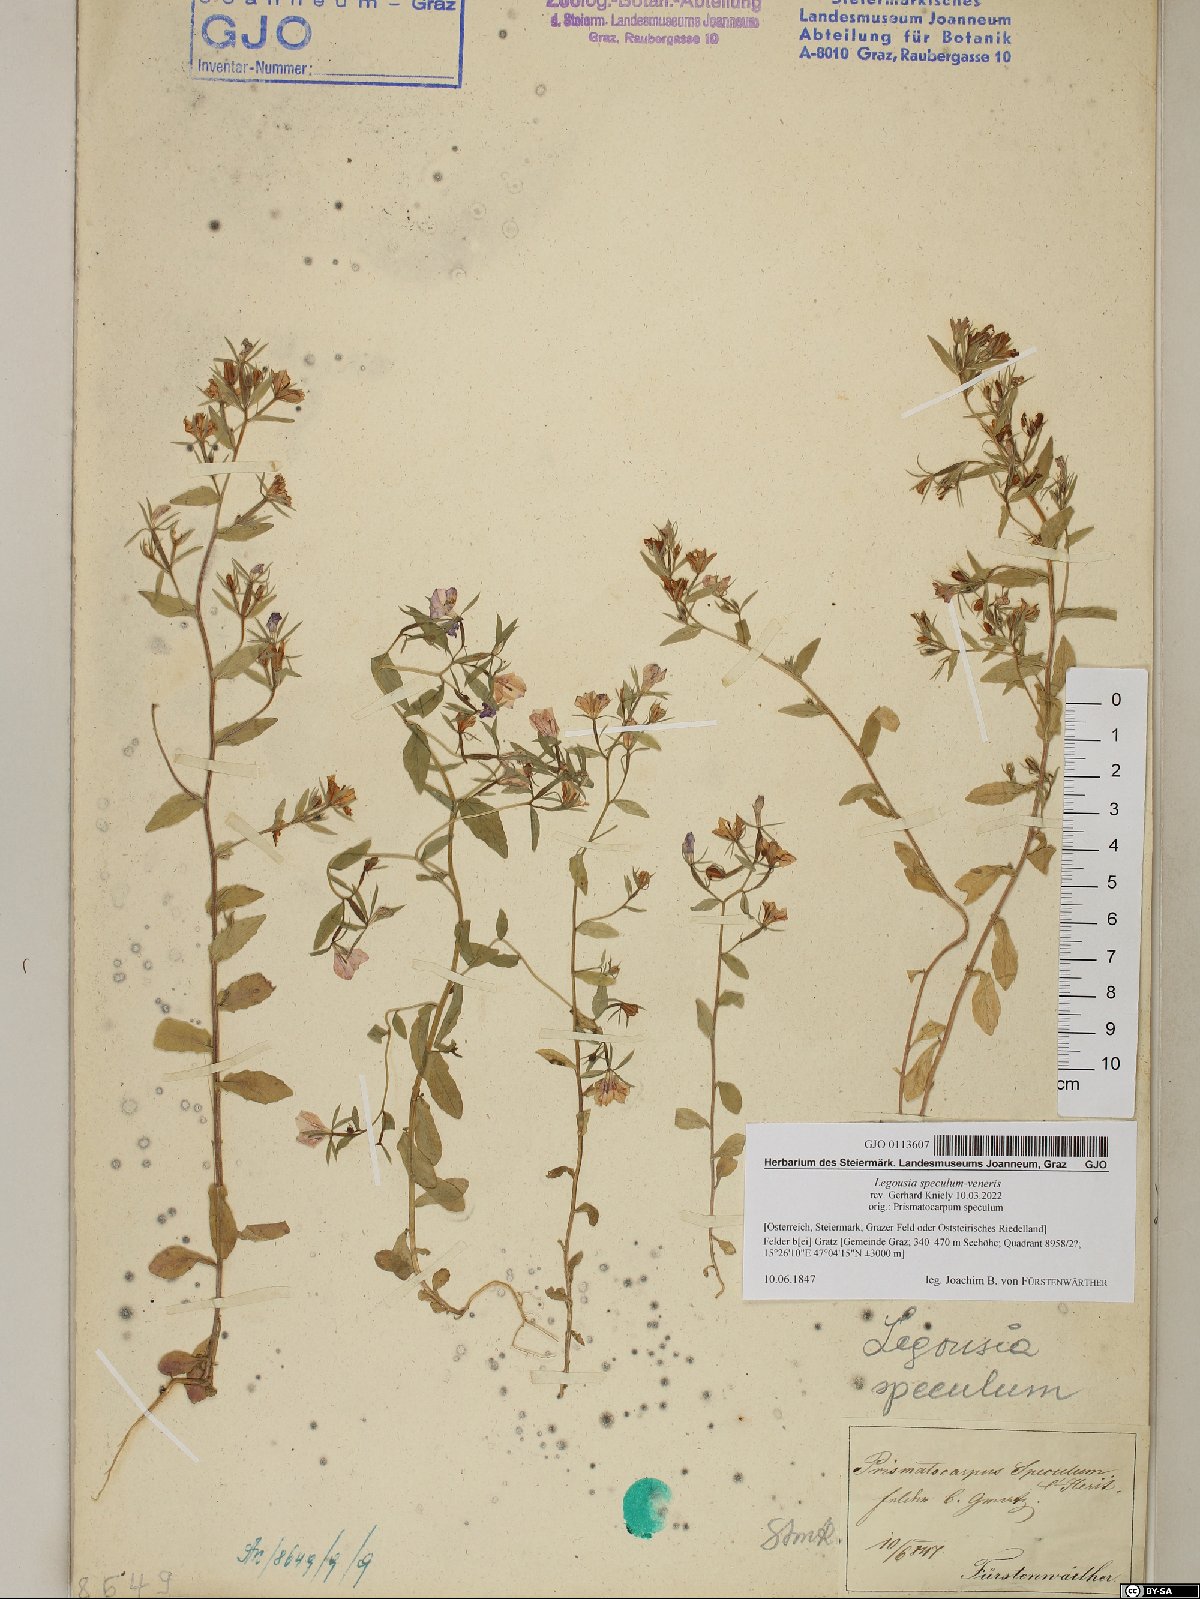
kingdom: Plantae
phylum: Tracheophyta
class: Magnoliopsida
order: Asterales
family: Campanulaceae
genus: Legousia
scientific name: Legousia speculum-veneris
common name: Large venus's-looking-glass
